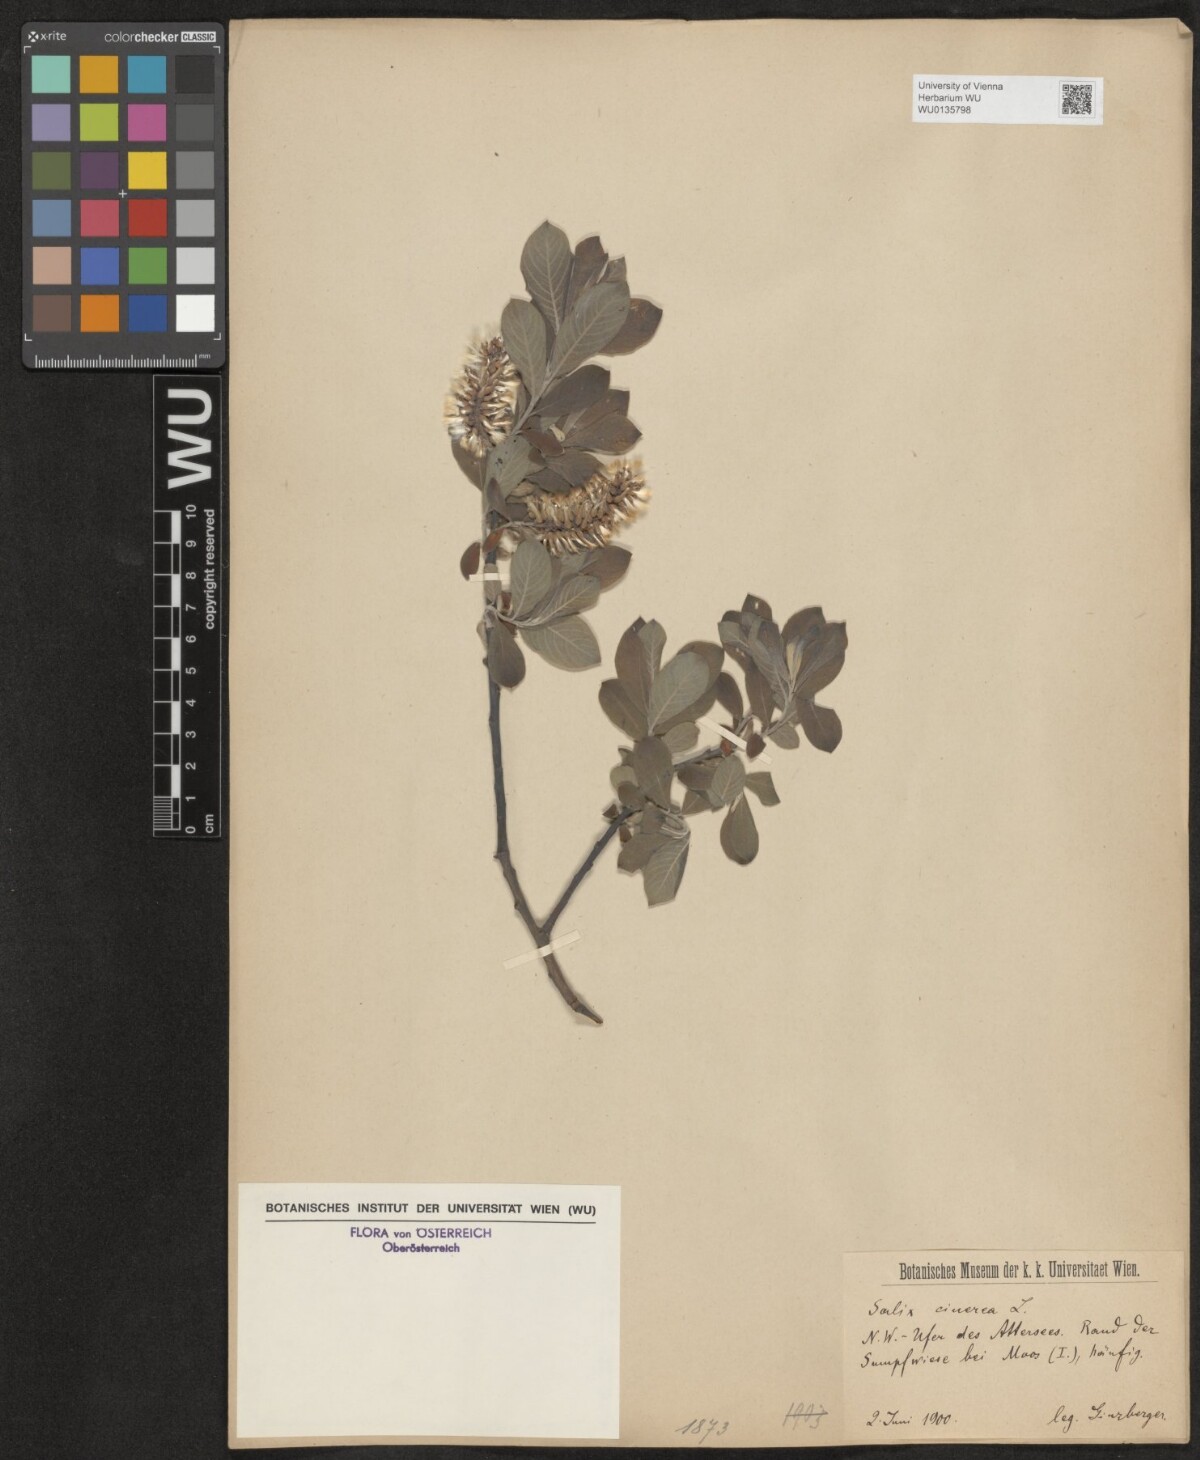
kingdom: Plantae
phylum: Tracheophyta
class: Magnoliopsida
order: Malpighiales
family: Salicaceae
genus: Salix
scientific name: Salix cinerea
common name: Common sallow
